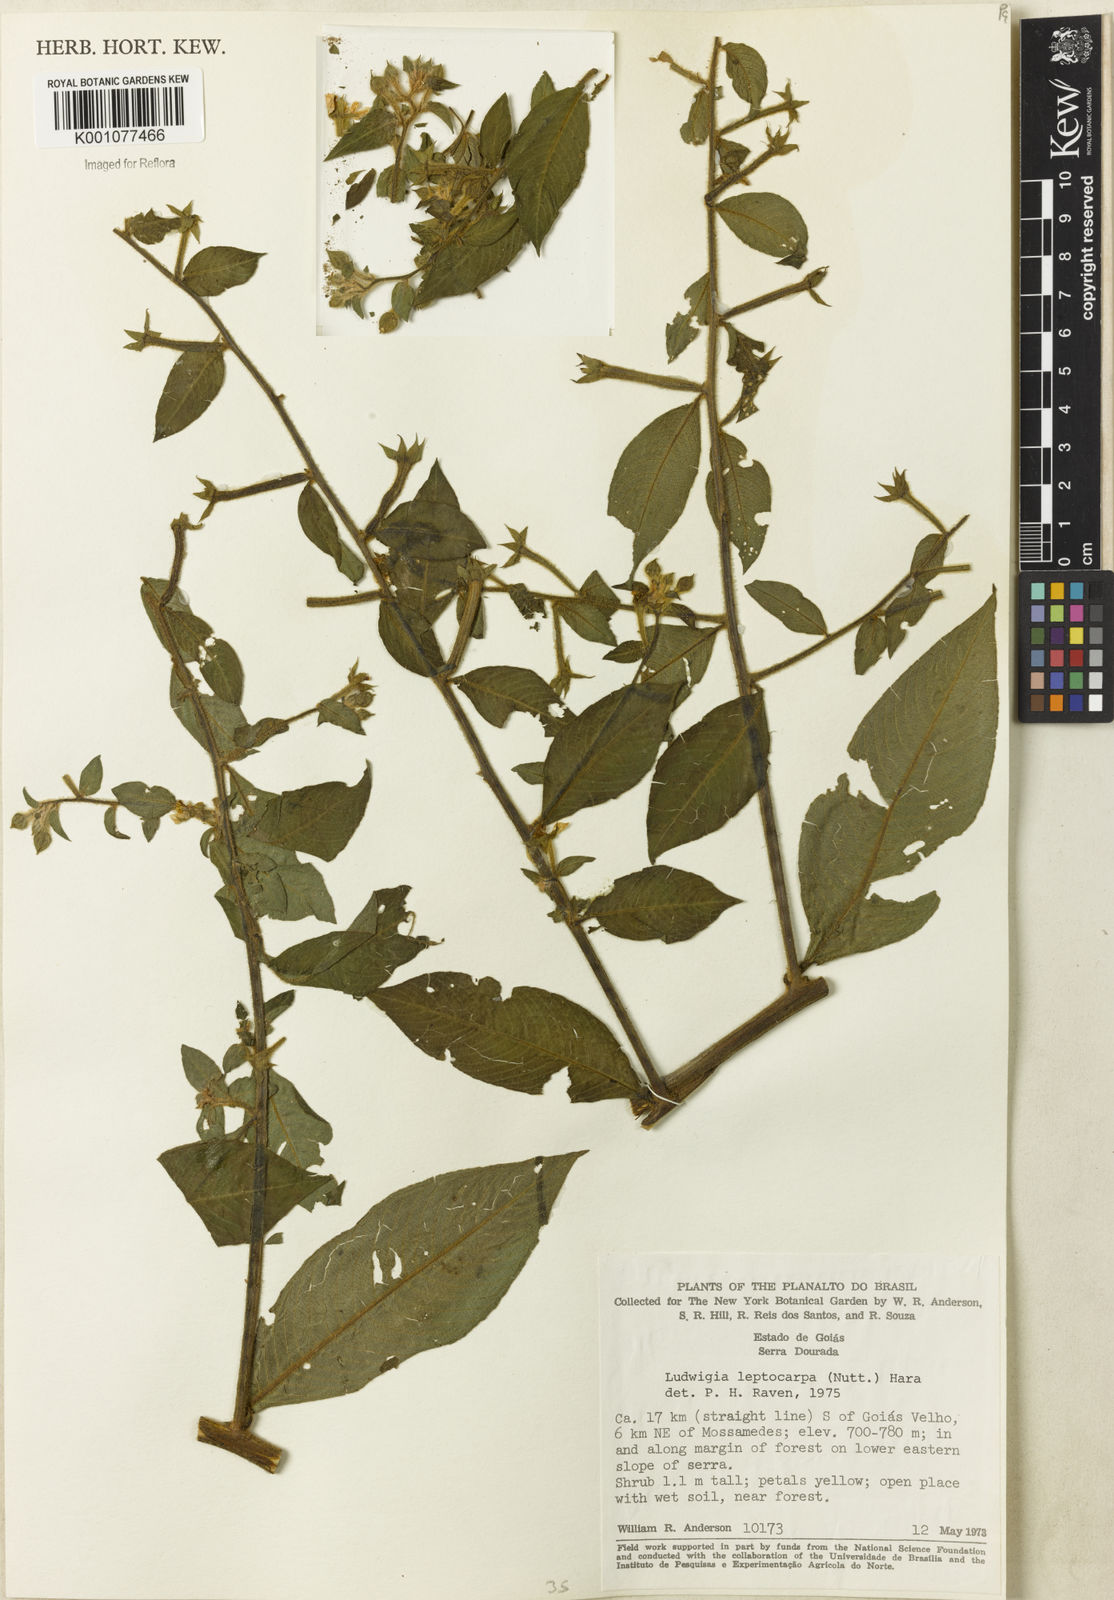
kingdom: Plantae
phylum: Tracheophyta
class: Magnoliopsida
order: Myrtales
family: Onagraceae
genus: Ludwigia
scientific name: Ludwigia leptocarpa
